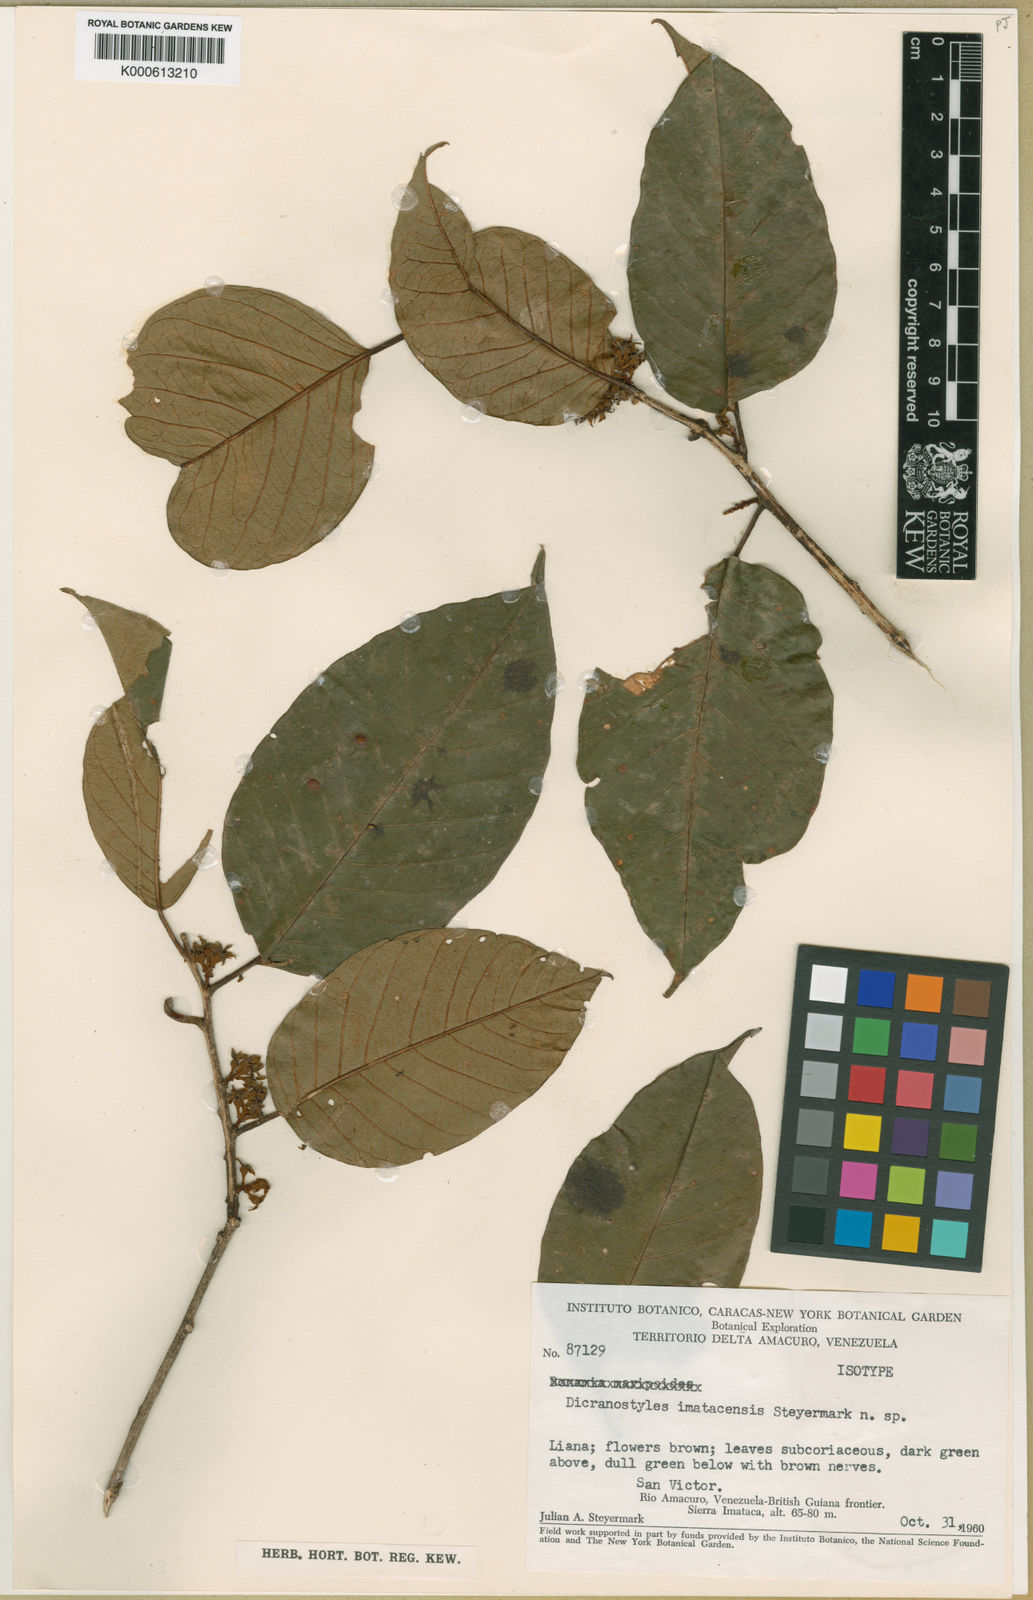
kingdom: Plantae
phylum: Tracheophyta
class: Magnoliopsida
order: Solanales
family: Convolvulaceae
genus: Dicranostyles
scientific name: Dicranostyles guianensis
